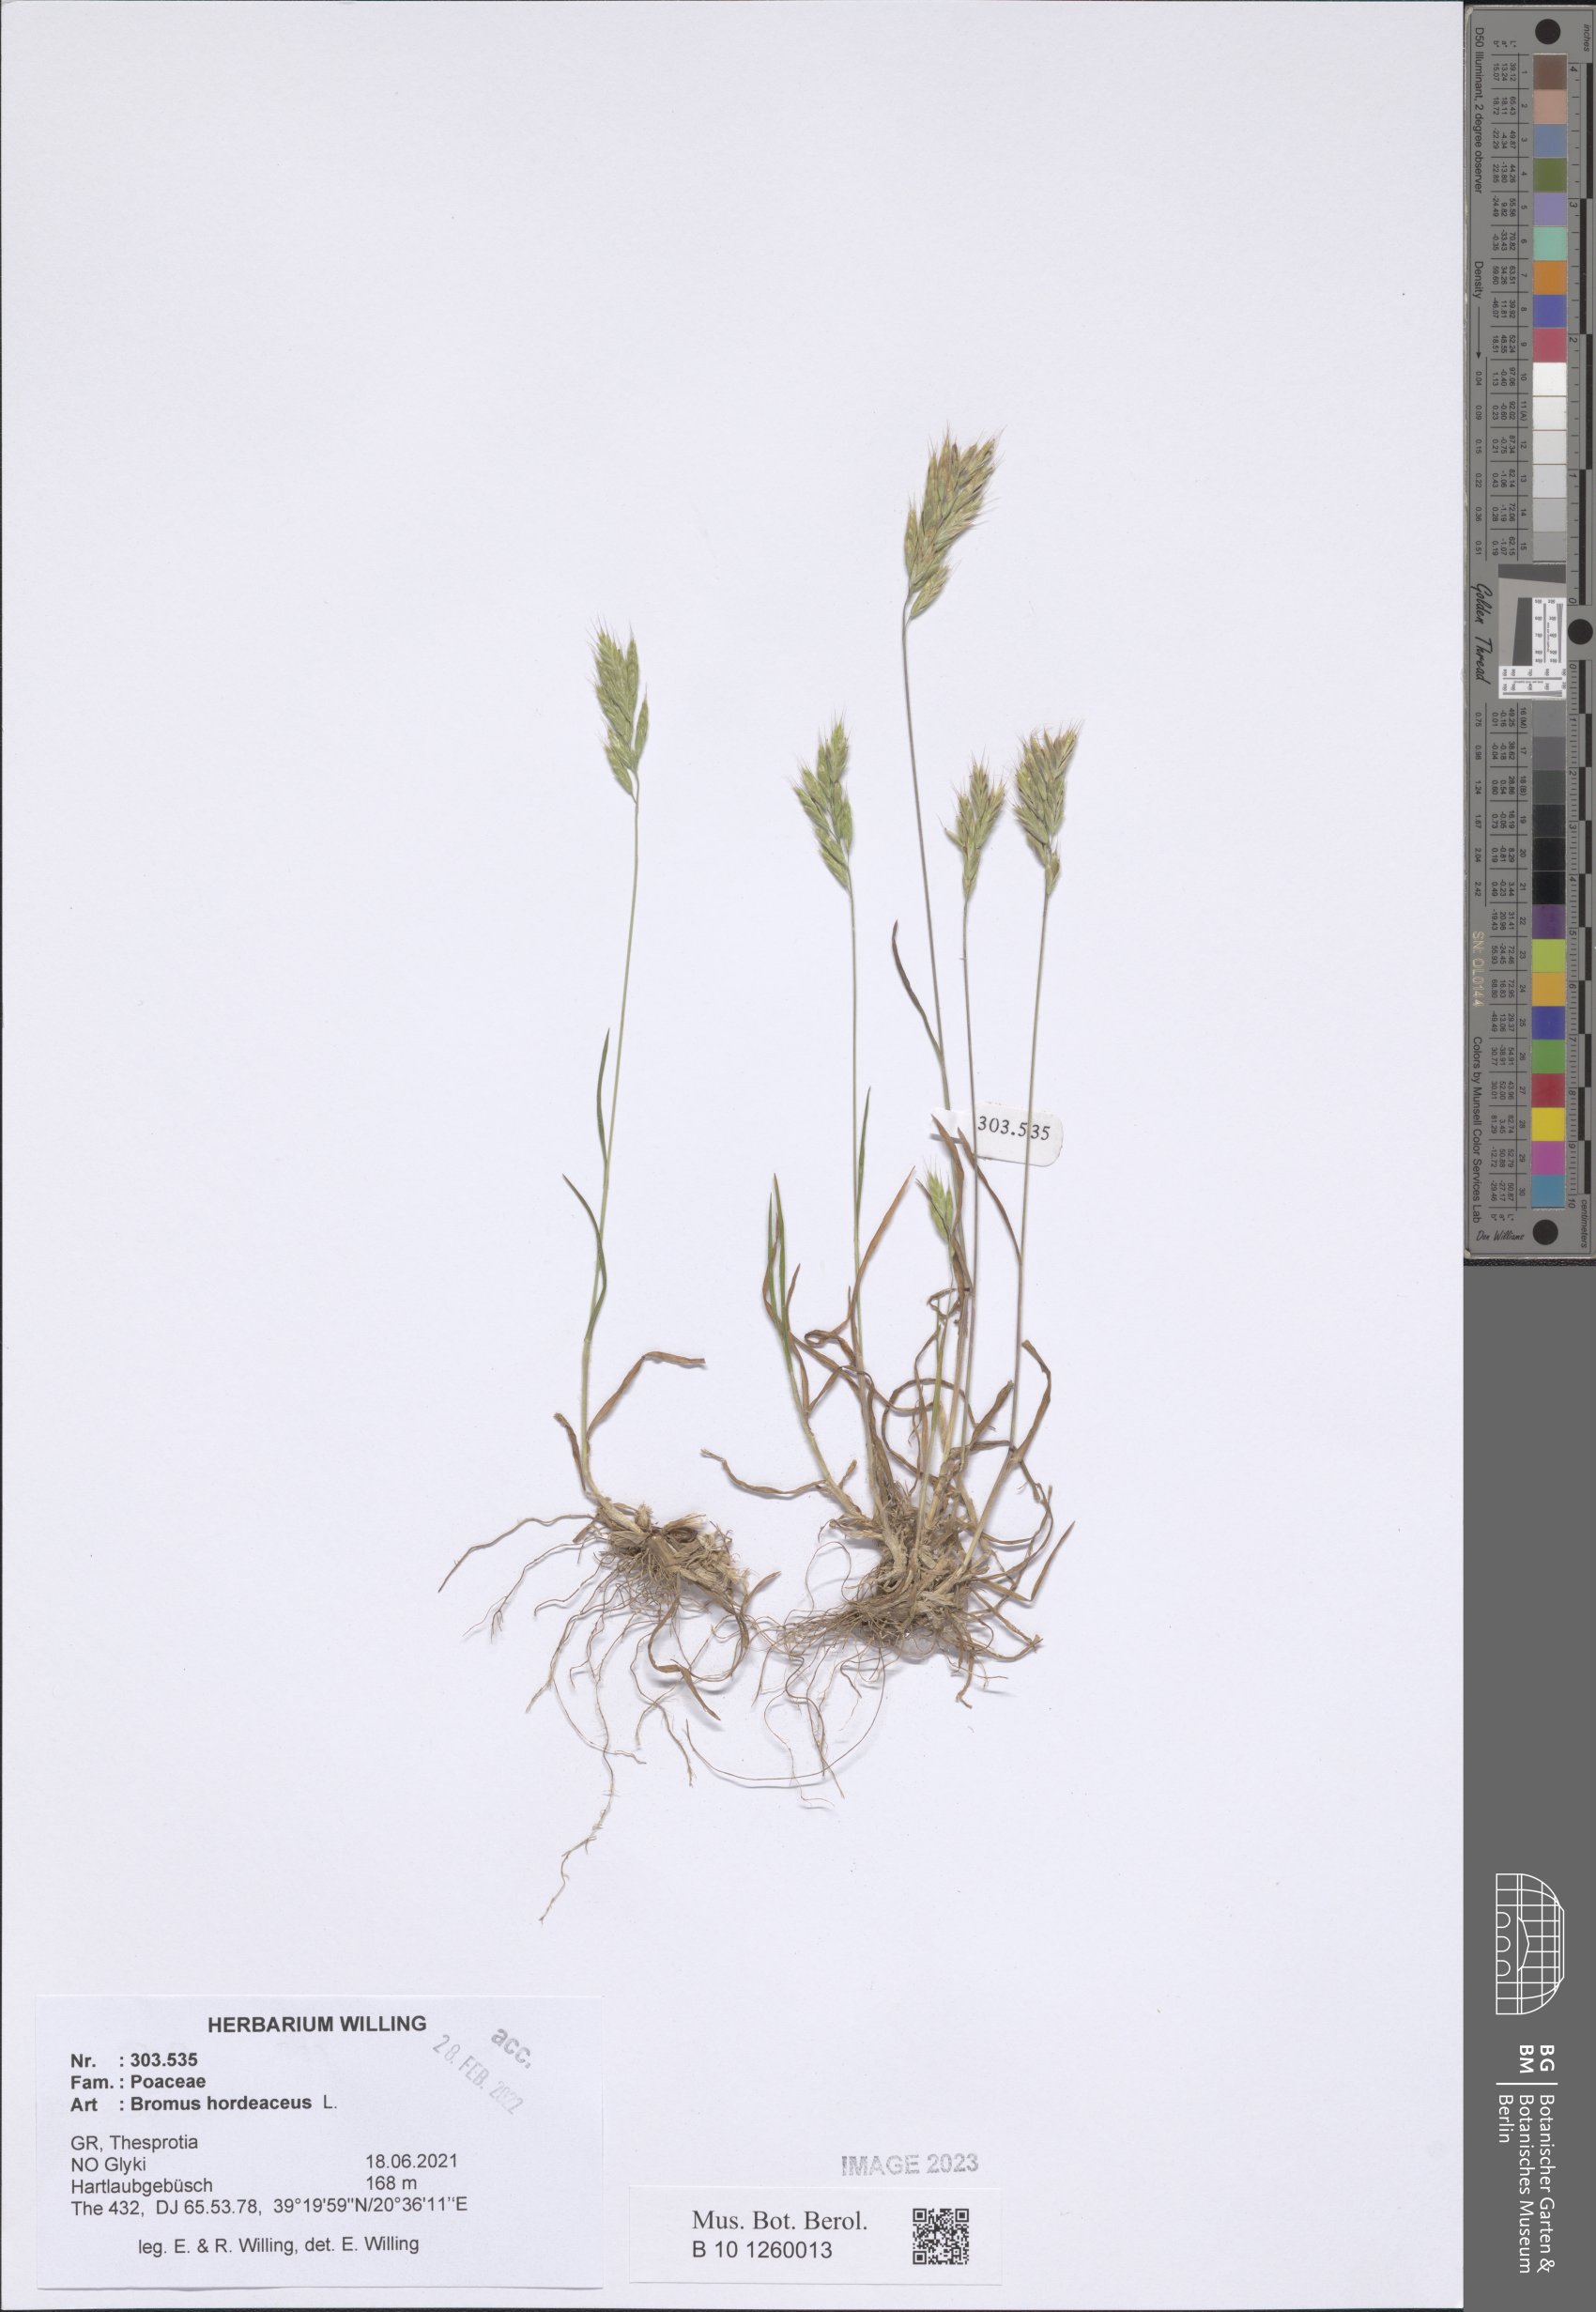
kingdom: Plantae
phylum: Tracheophyta
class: Liliopsida
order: Poales
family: Poaceae
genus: Bromus
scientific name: Bromus hordeaceus
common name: Soft brome
